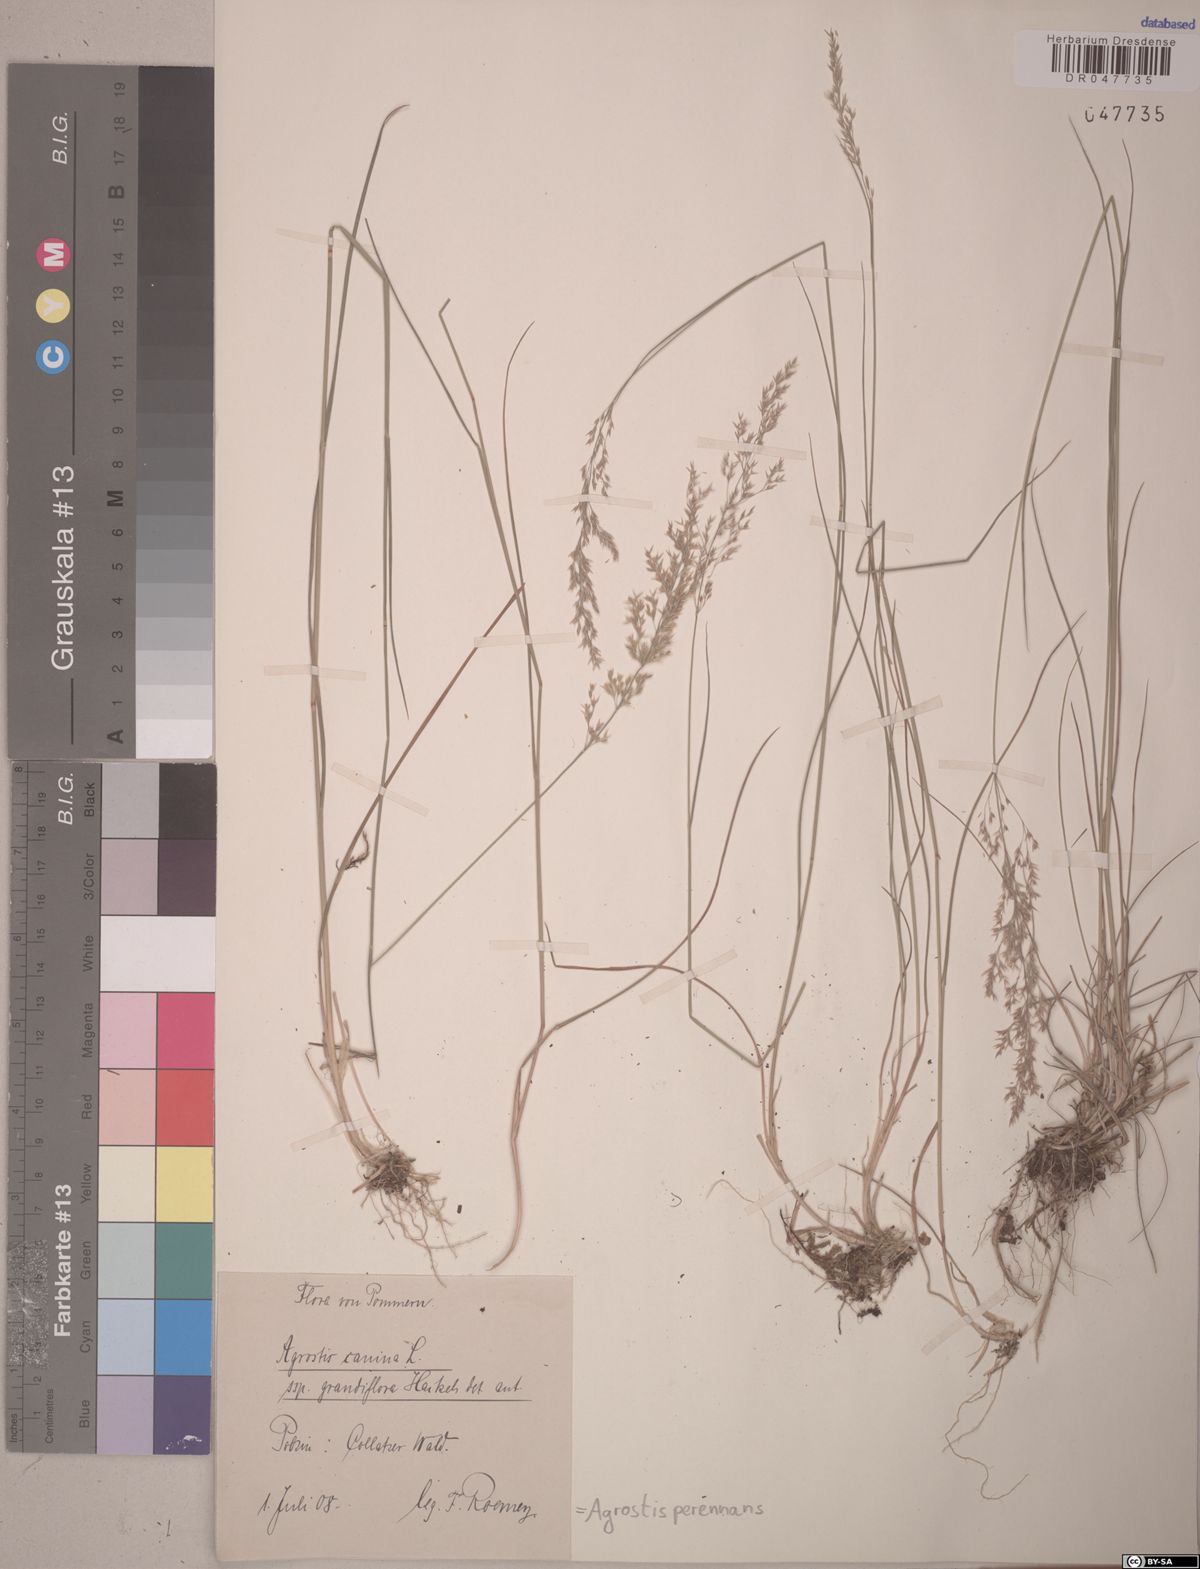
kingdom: Plantae
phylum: Tracheophyta
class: Liliopsida
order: Poales
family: Poaceae
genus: Agrostis
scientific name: Agrostis perennans
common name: Autumn bent
